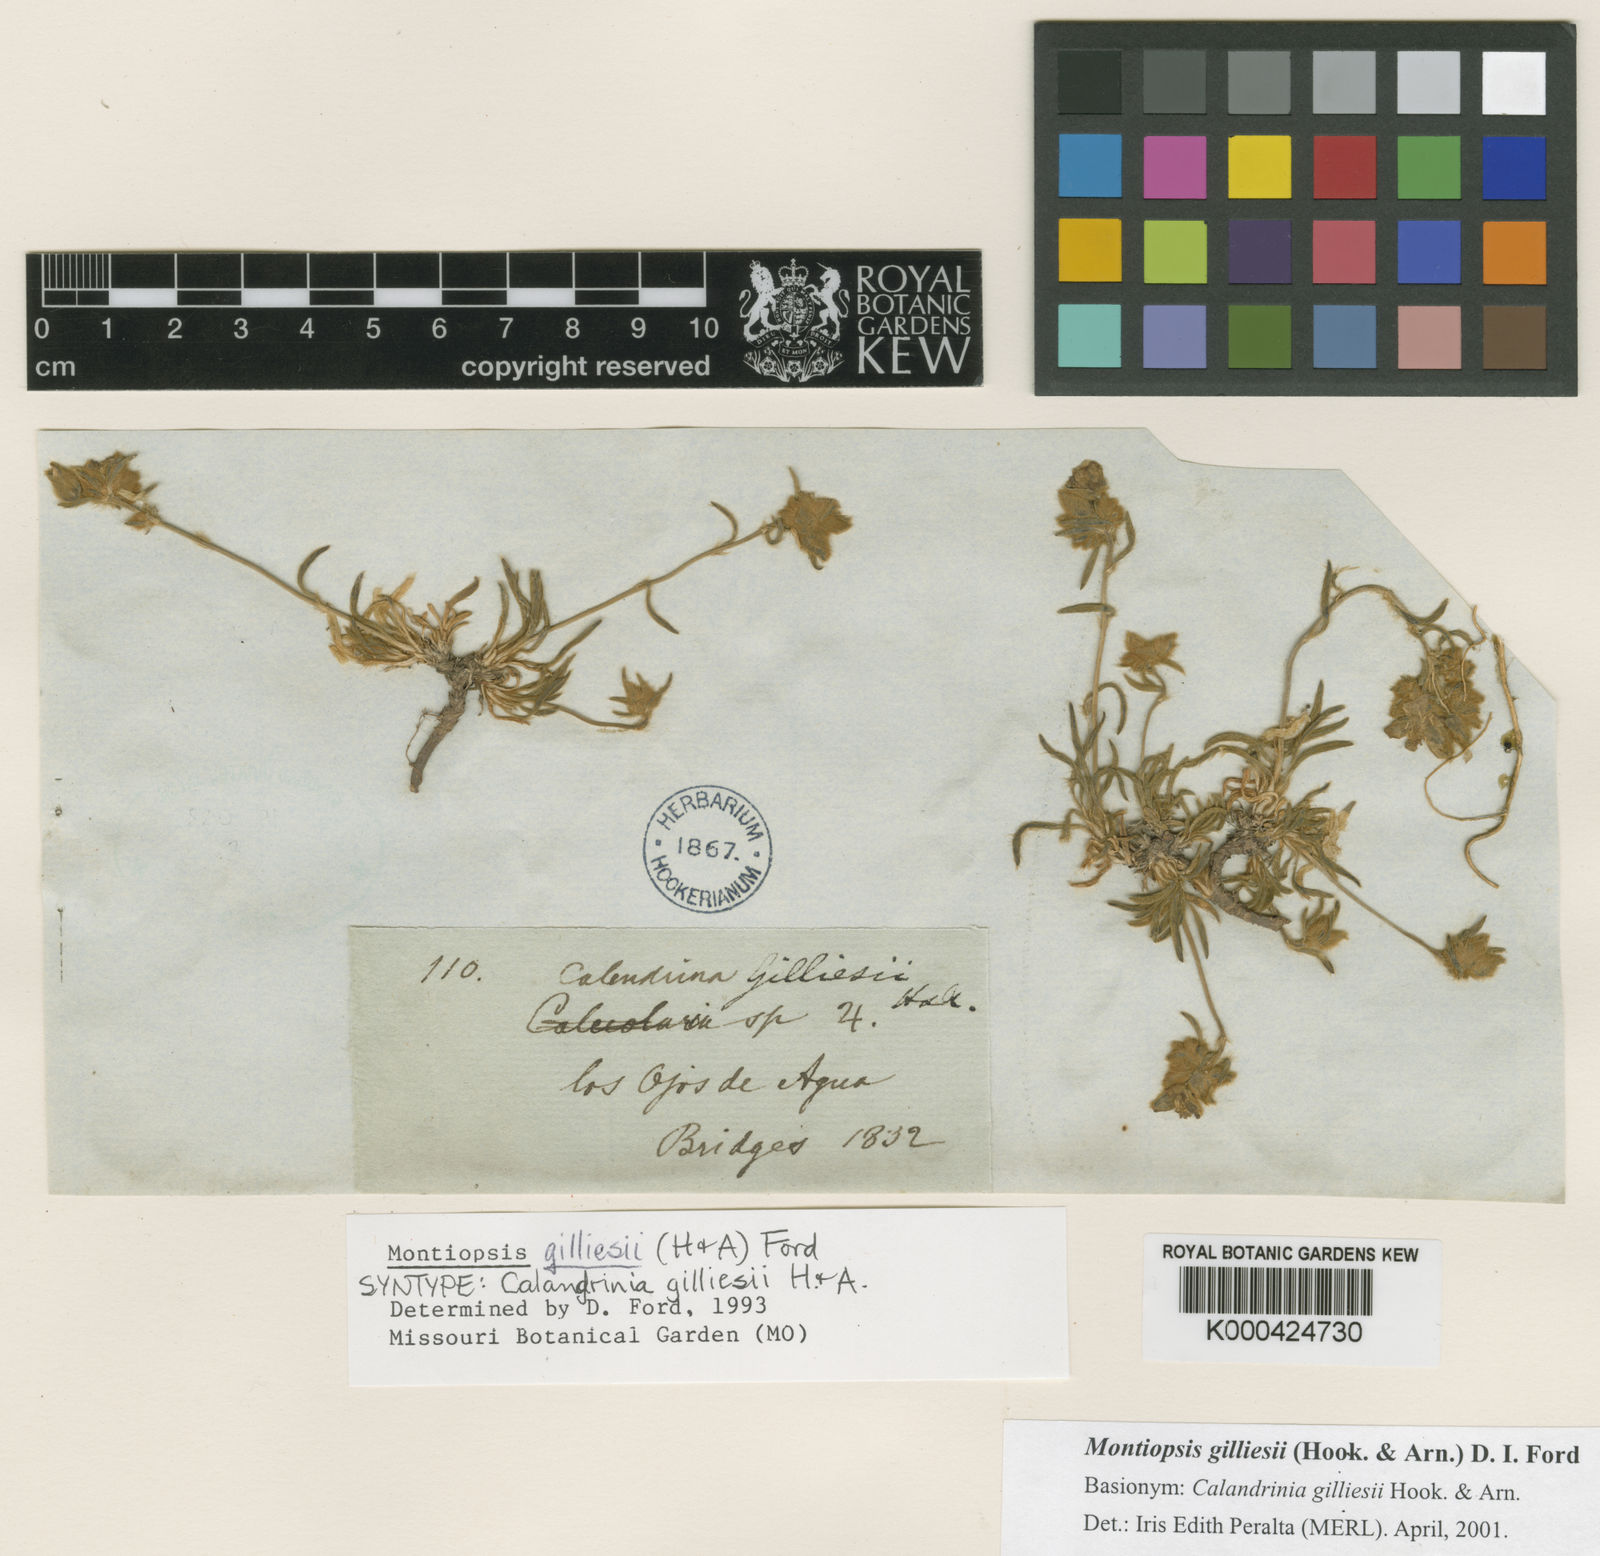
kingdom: Plantae
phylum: Tracheophyta
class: Magnoliopsida
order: Caryophyllales
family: Montiaceae
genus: Montiopsis
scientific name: Montiopsis gilliesii
